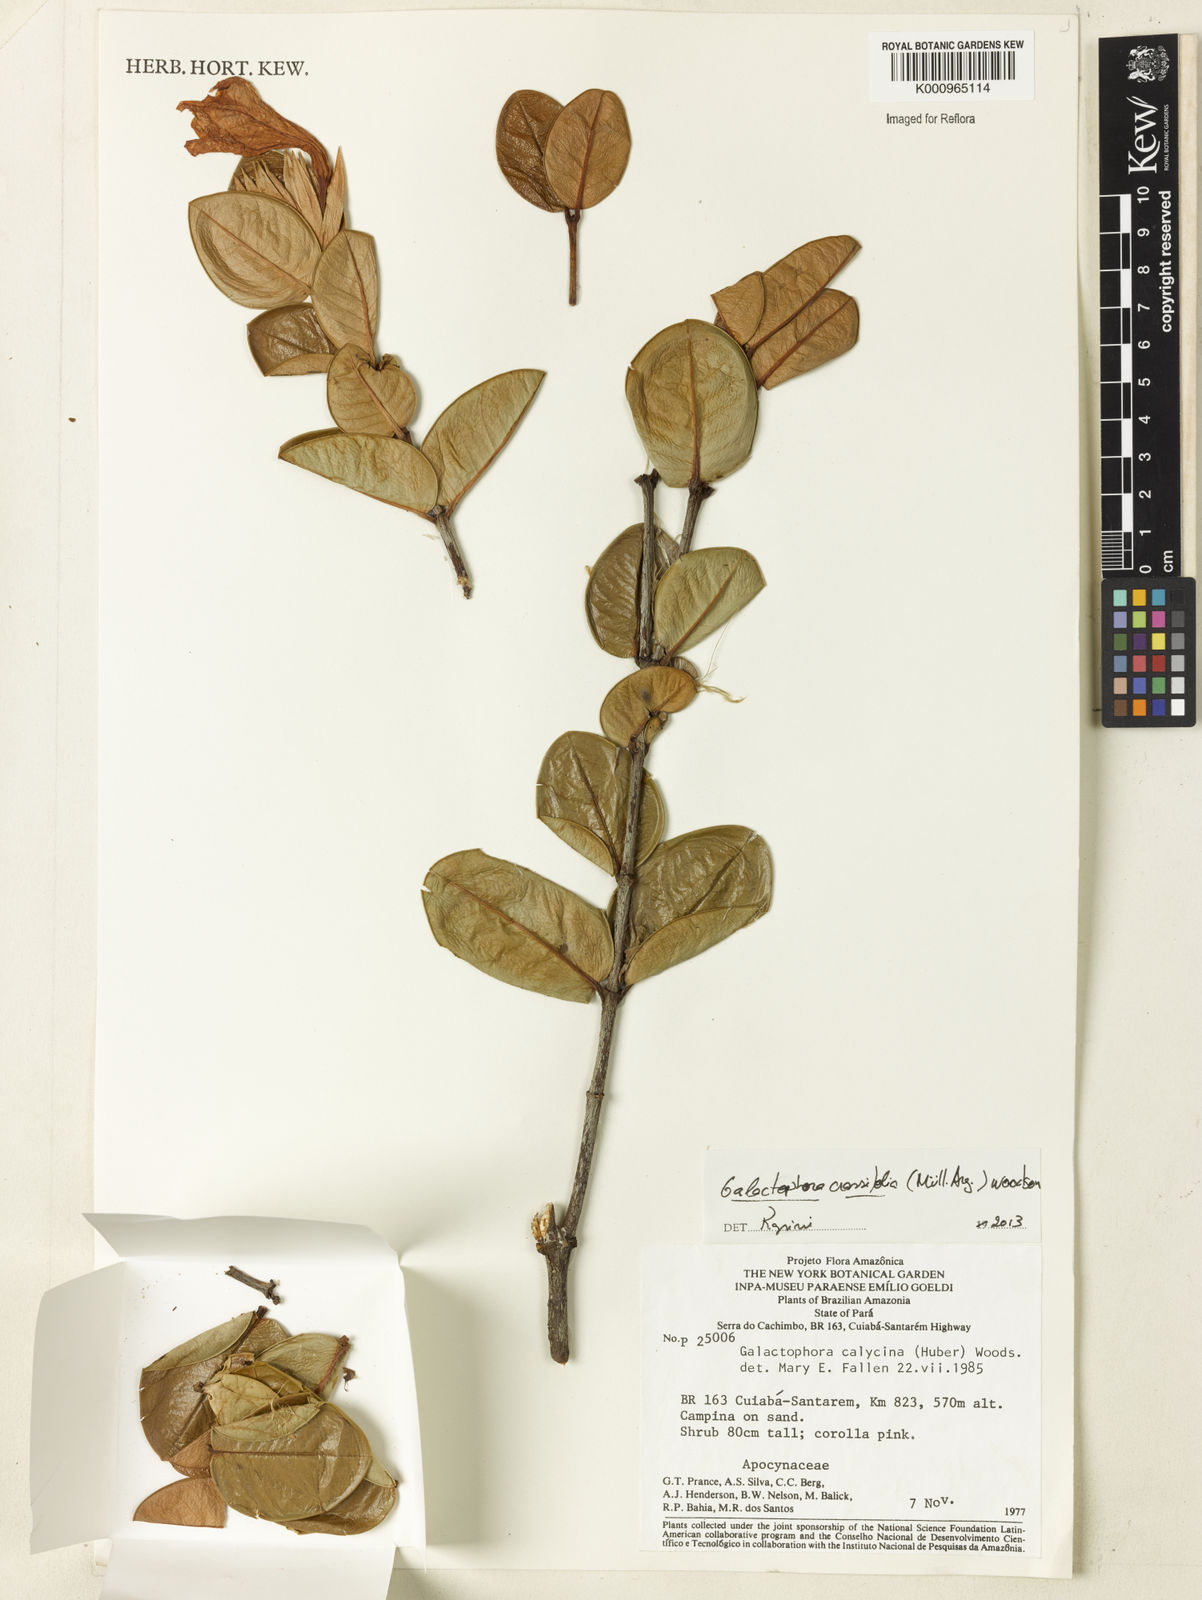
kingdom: Plantae
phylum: Tracheophyta
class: Magnoliopsida
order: Gentianales
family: Apocynaceae
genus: Galactophora
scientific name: Galactophora
